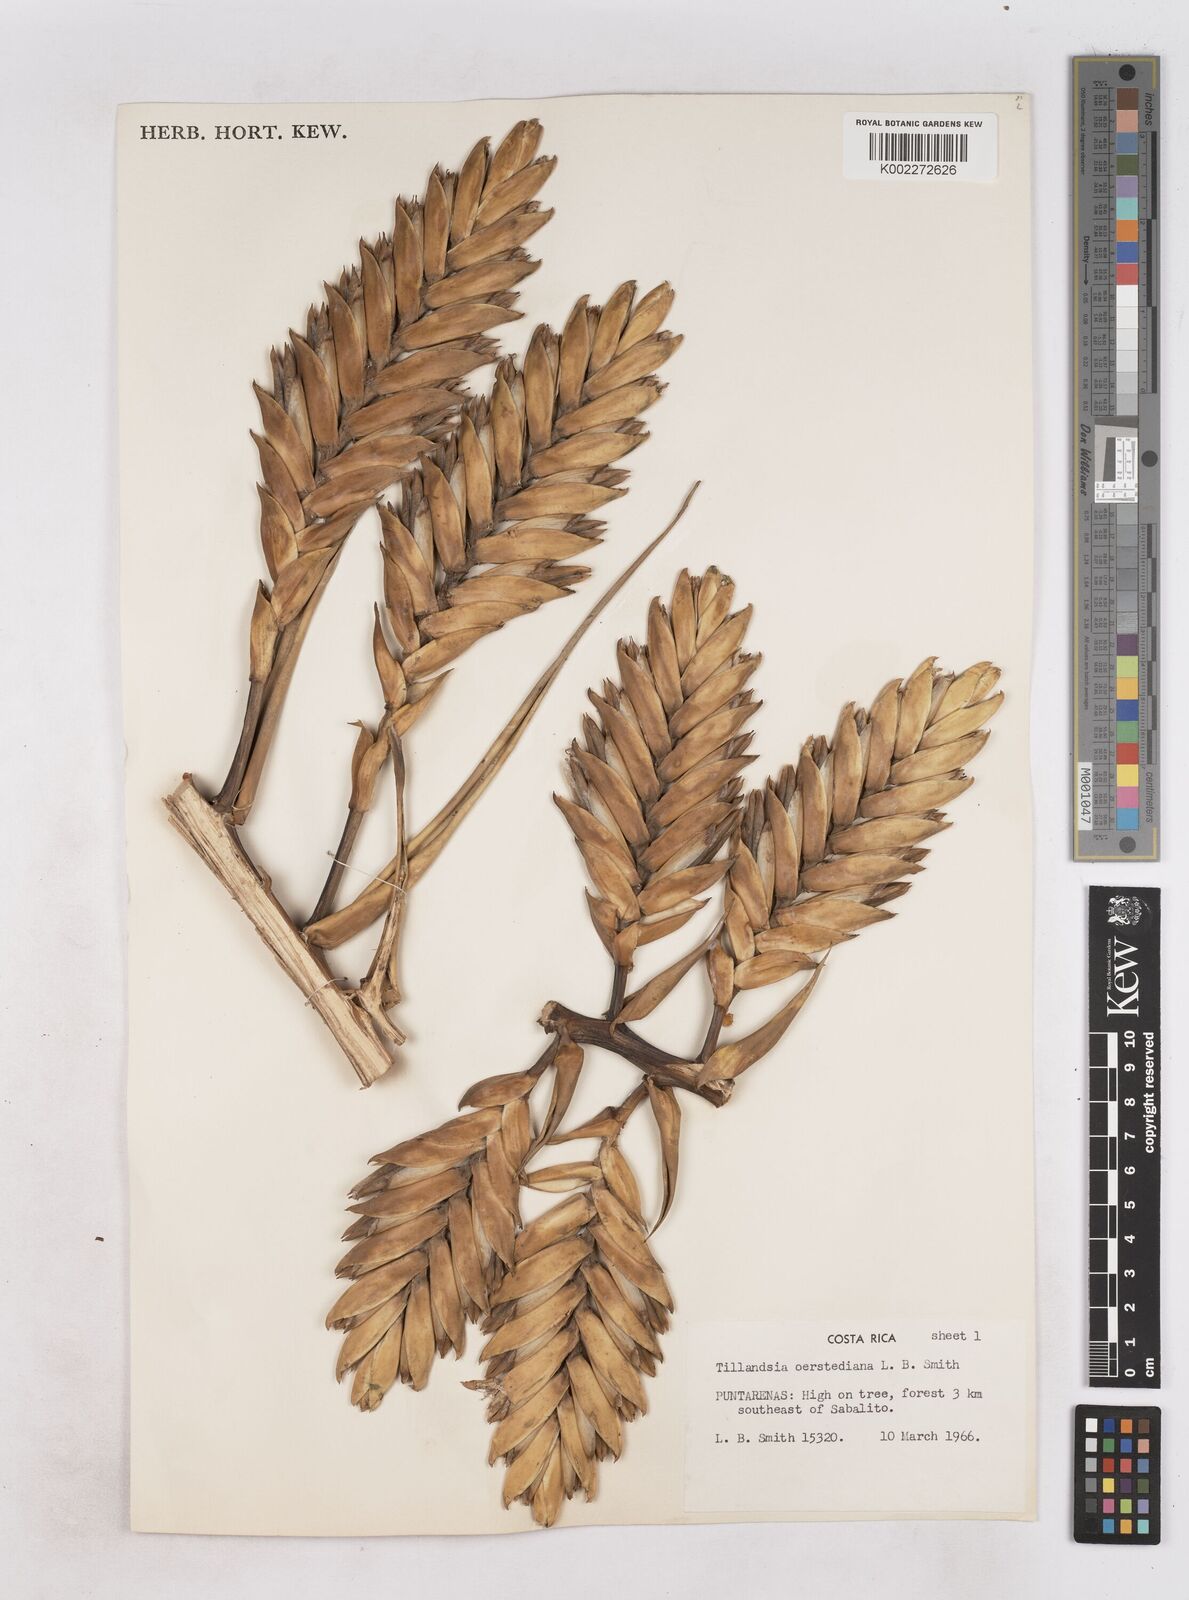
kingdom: Plantae
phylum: Tracheophyta
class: Liliopsida
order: Poales
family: Bromeliaceae
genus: Tillandsia
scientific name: Tillandsia oerstediana
